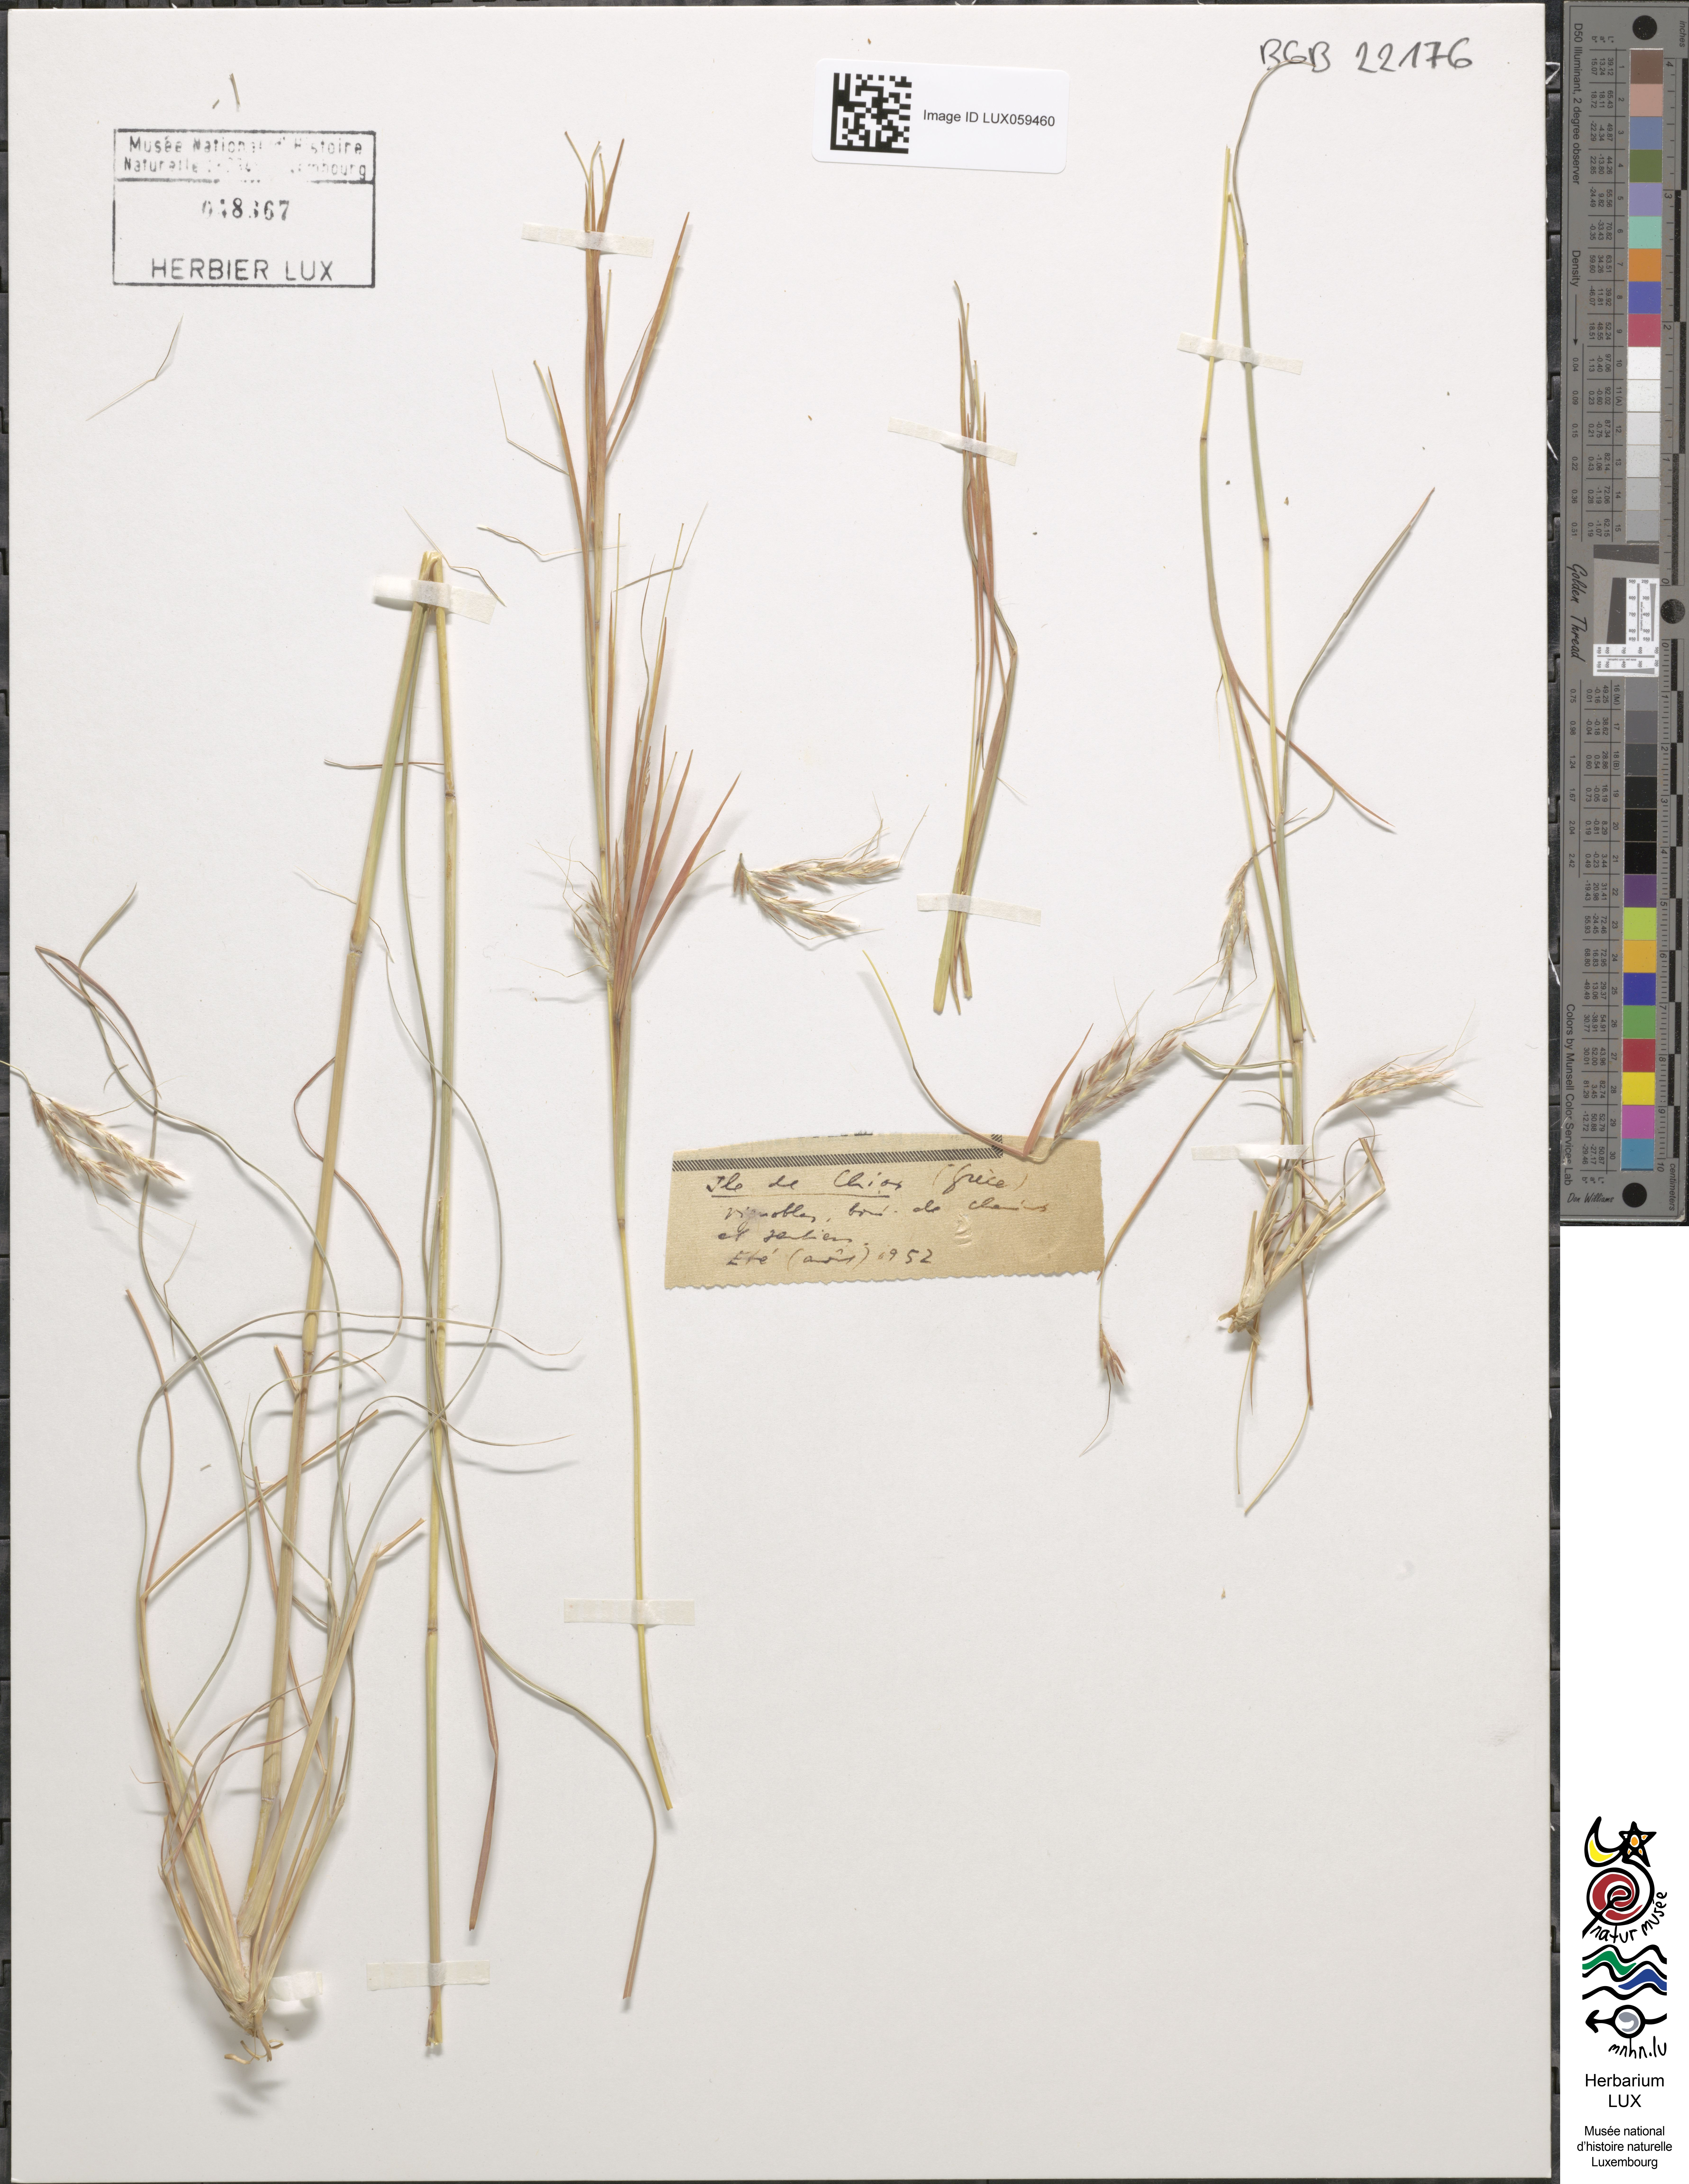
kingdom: Plantae
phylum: Tracheophyta
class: Liliopsida
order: Poales
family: Poaceae
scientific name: Poaceae
